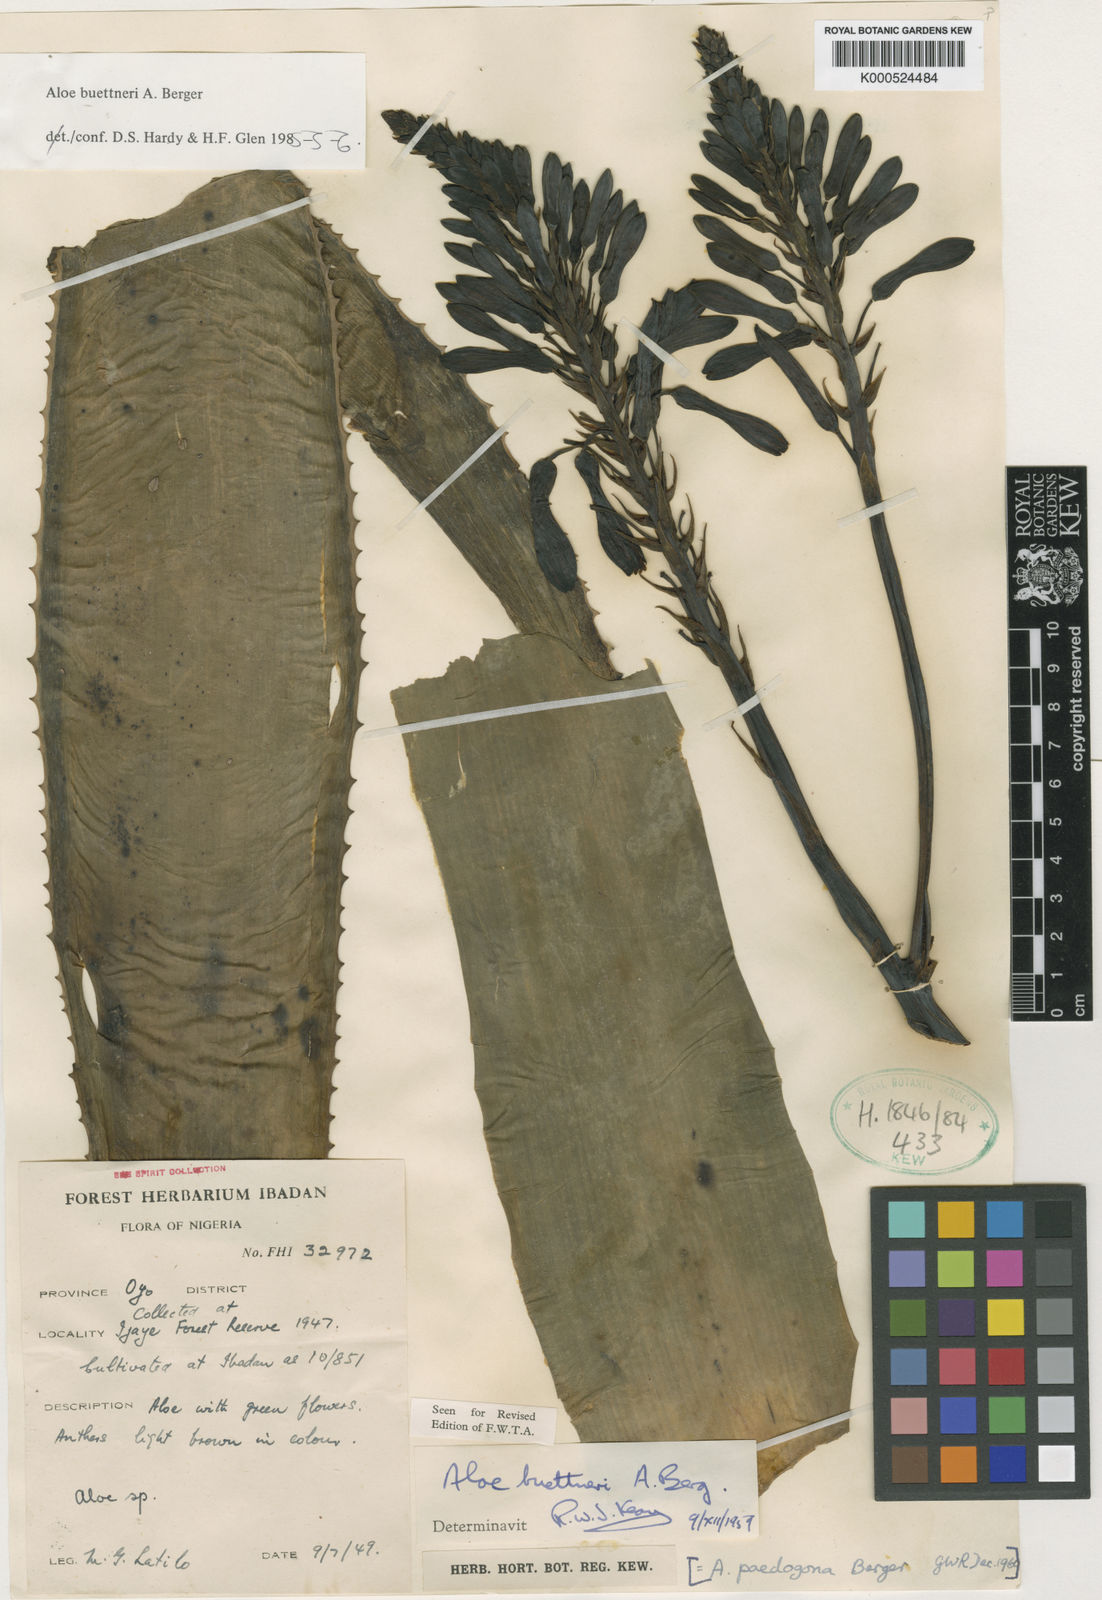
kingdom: Plantae
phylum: Tracheophyta
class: Liliopsida
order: Asparagales
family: Asphodelaceae
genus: Aloe
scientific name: Aloe buettneri
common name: West african aloe
